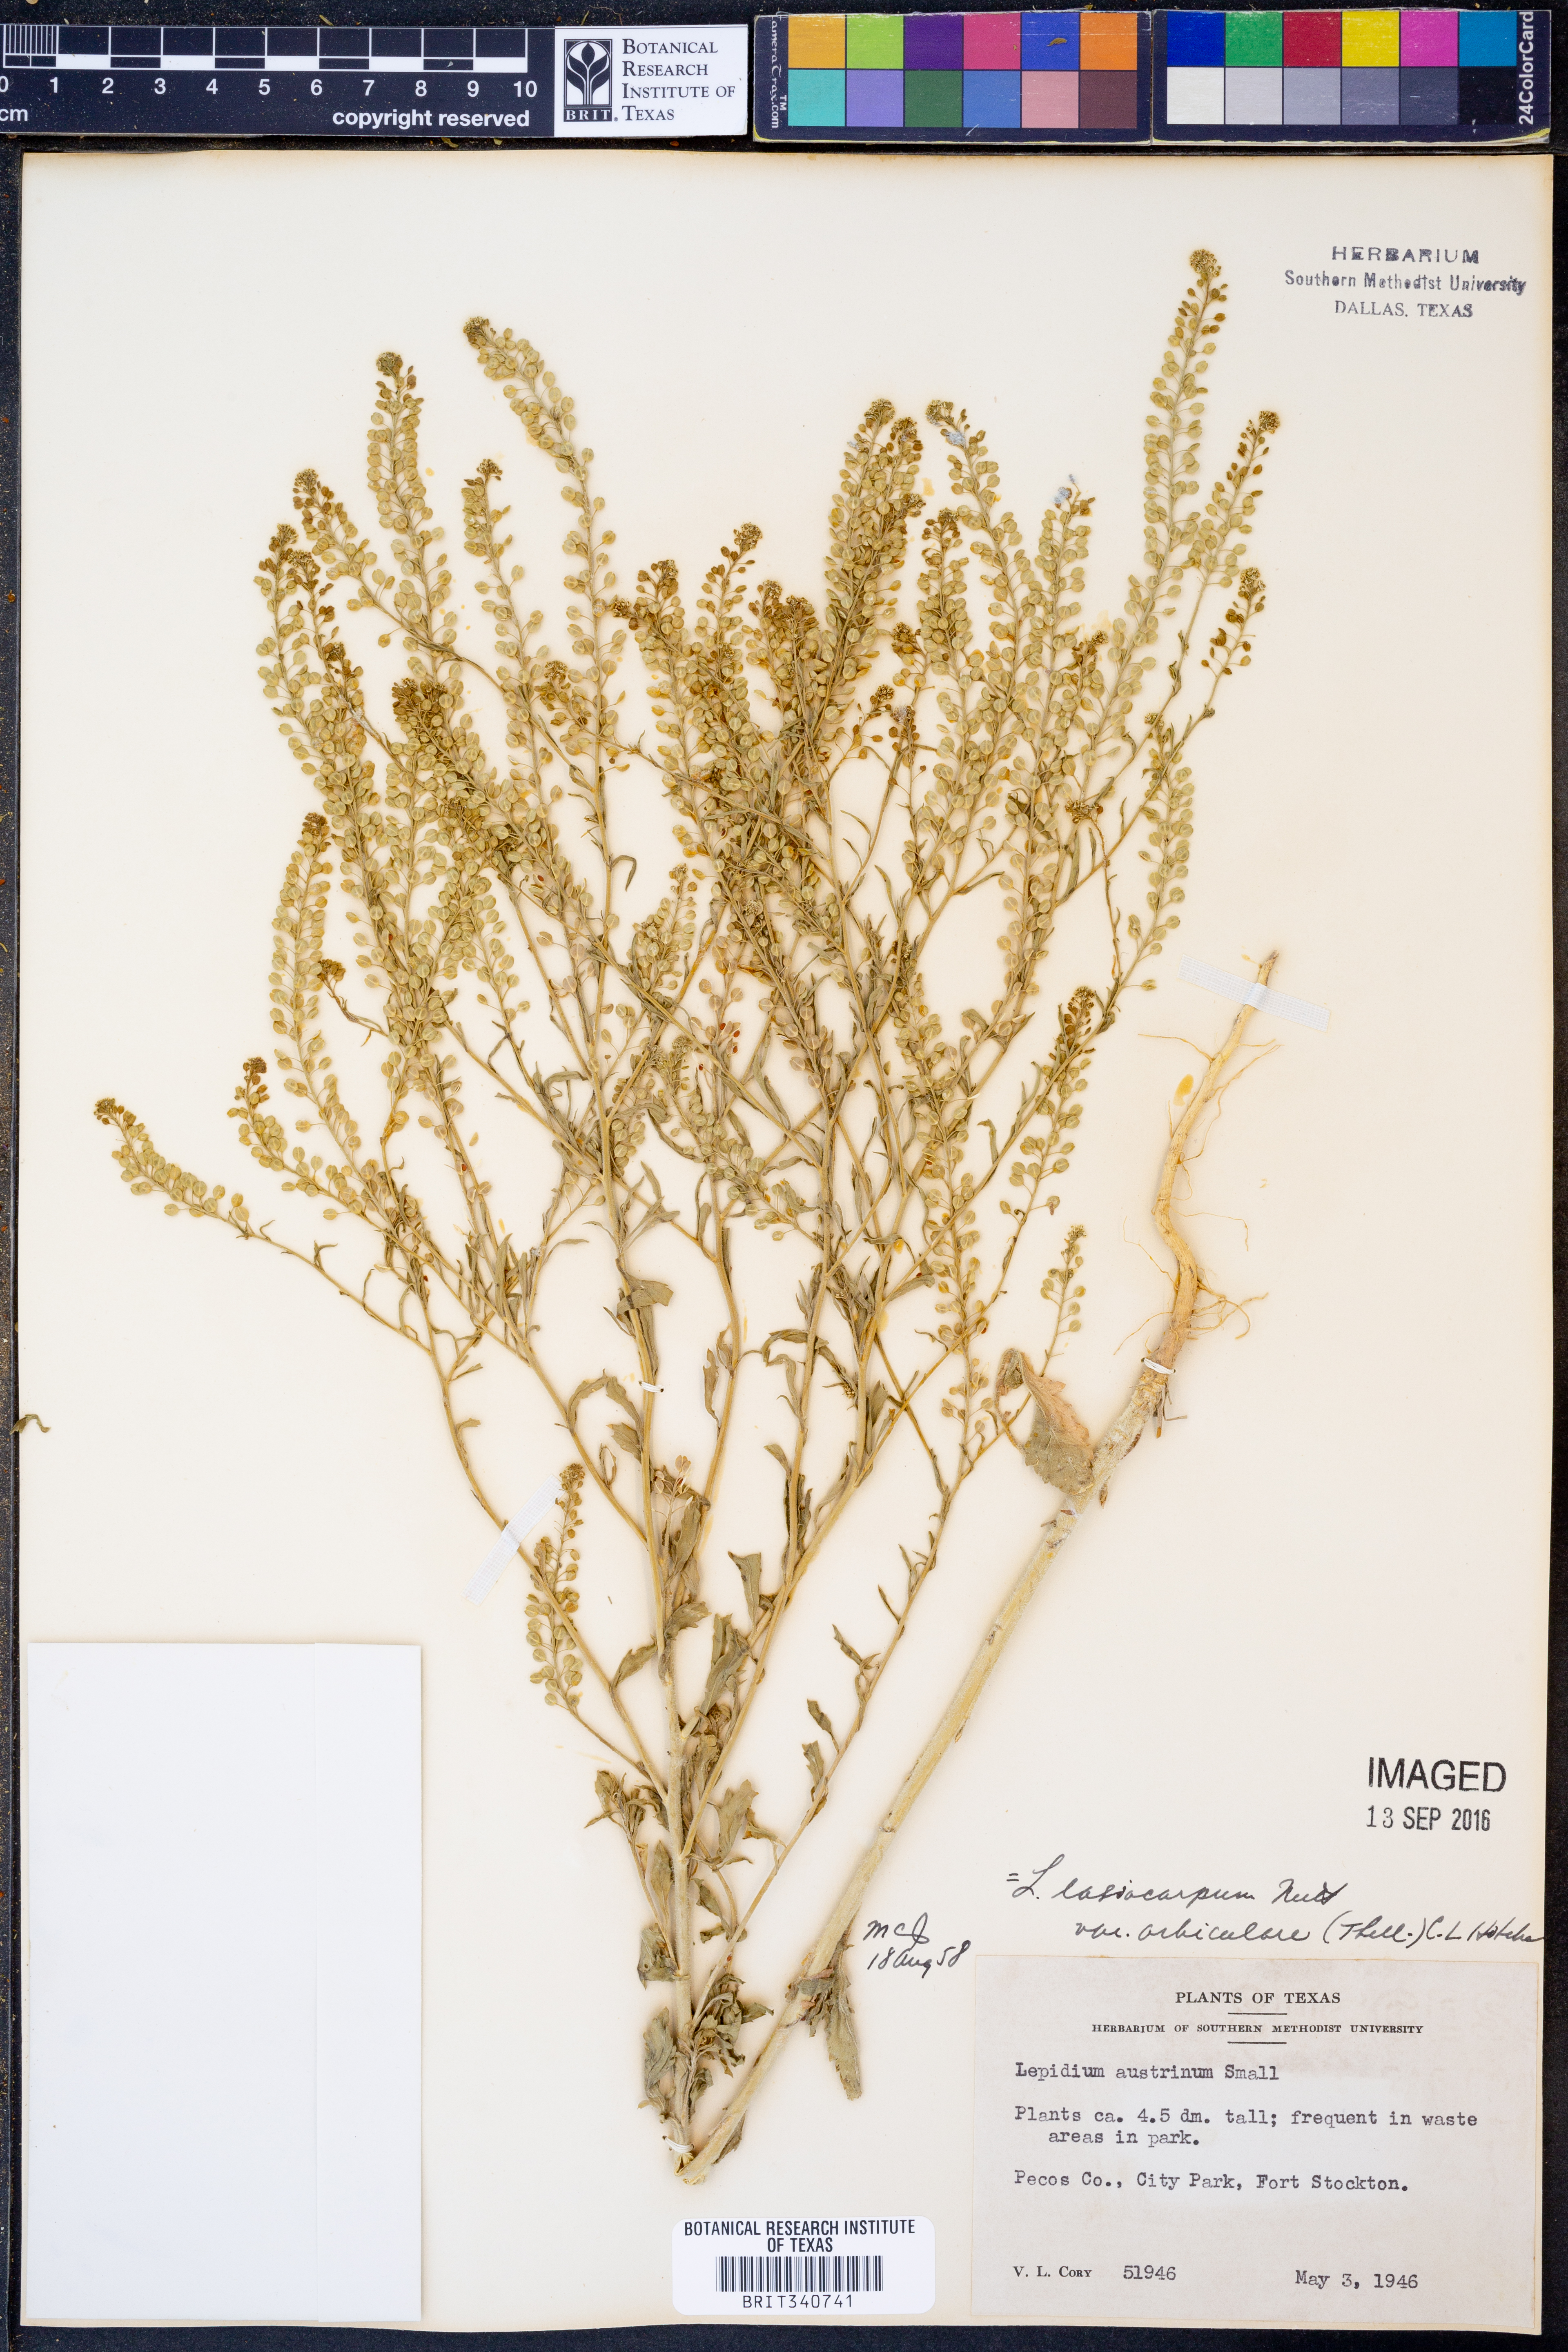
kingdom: Plantae
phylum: Tracheophyta
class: Magnoliopsida
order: Brassicales
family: Brassicaceae
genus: Lepidium
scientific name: Lepidium austrinum
